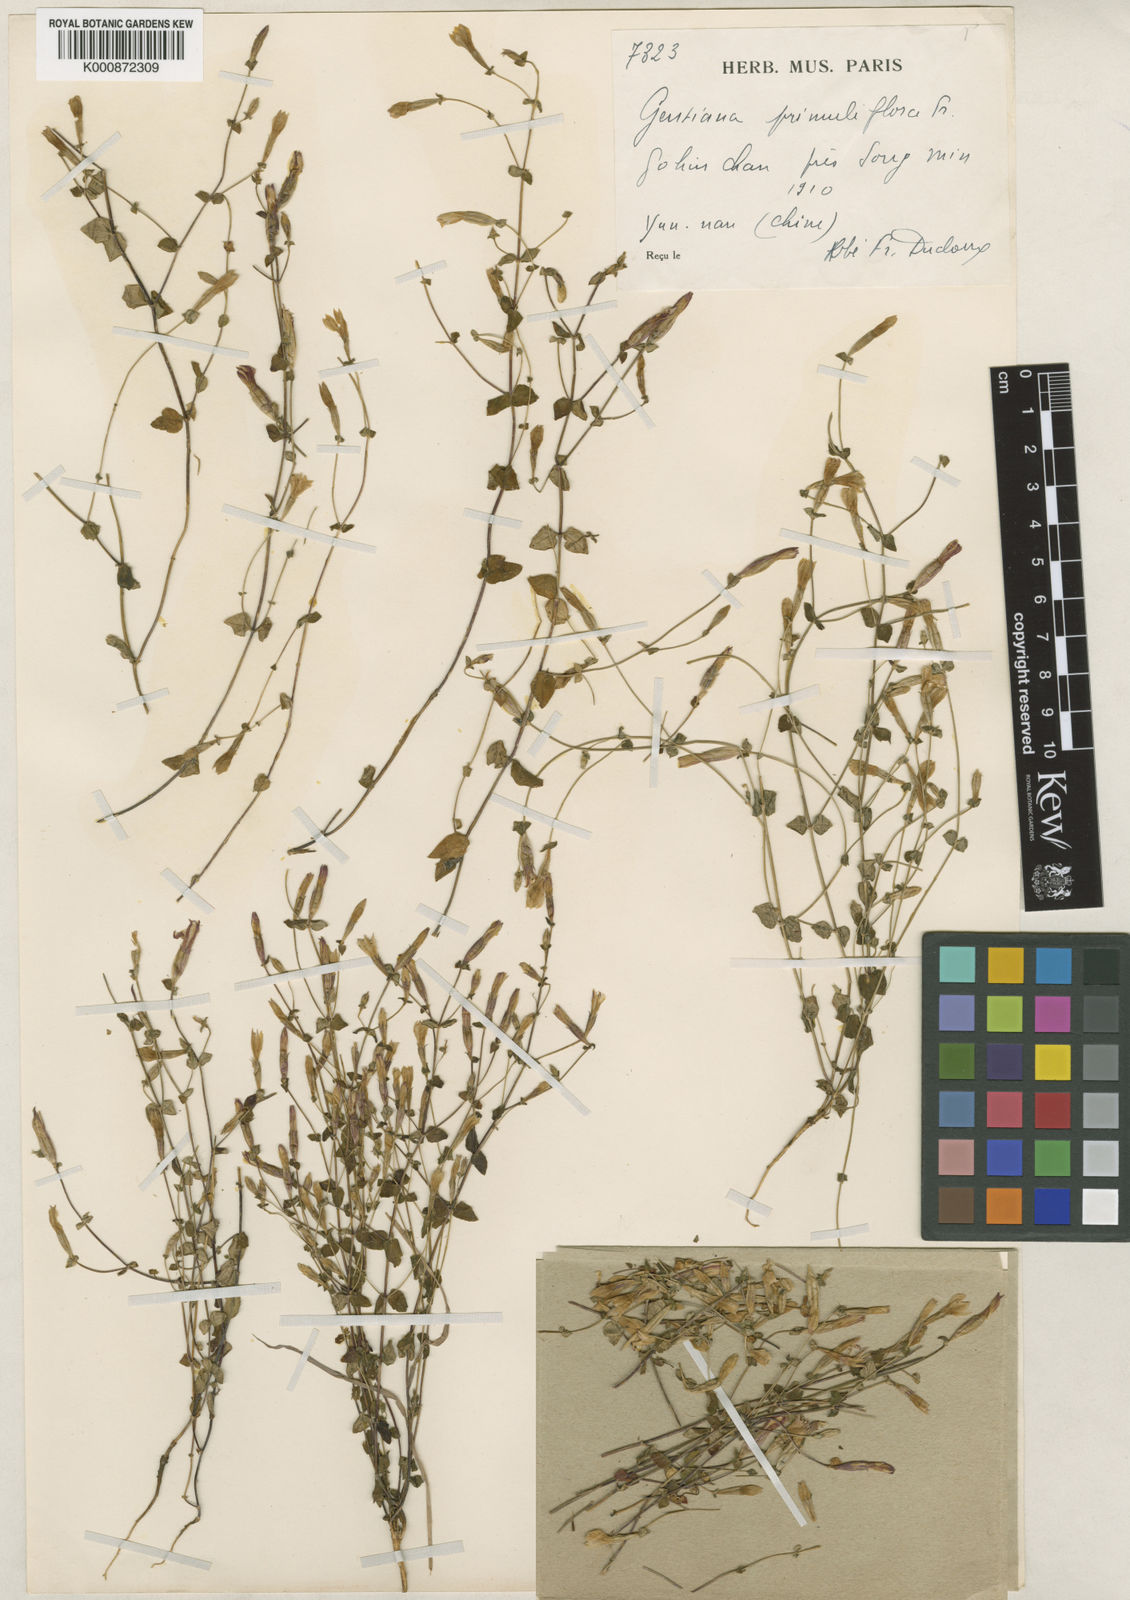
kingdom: Plantae
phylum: Tracheophyta
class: Magnoliopsida
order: Gentianales
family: Gentianaceae
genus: Metagentiana
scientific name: Metagentiana primuliflora
